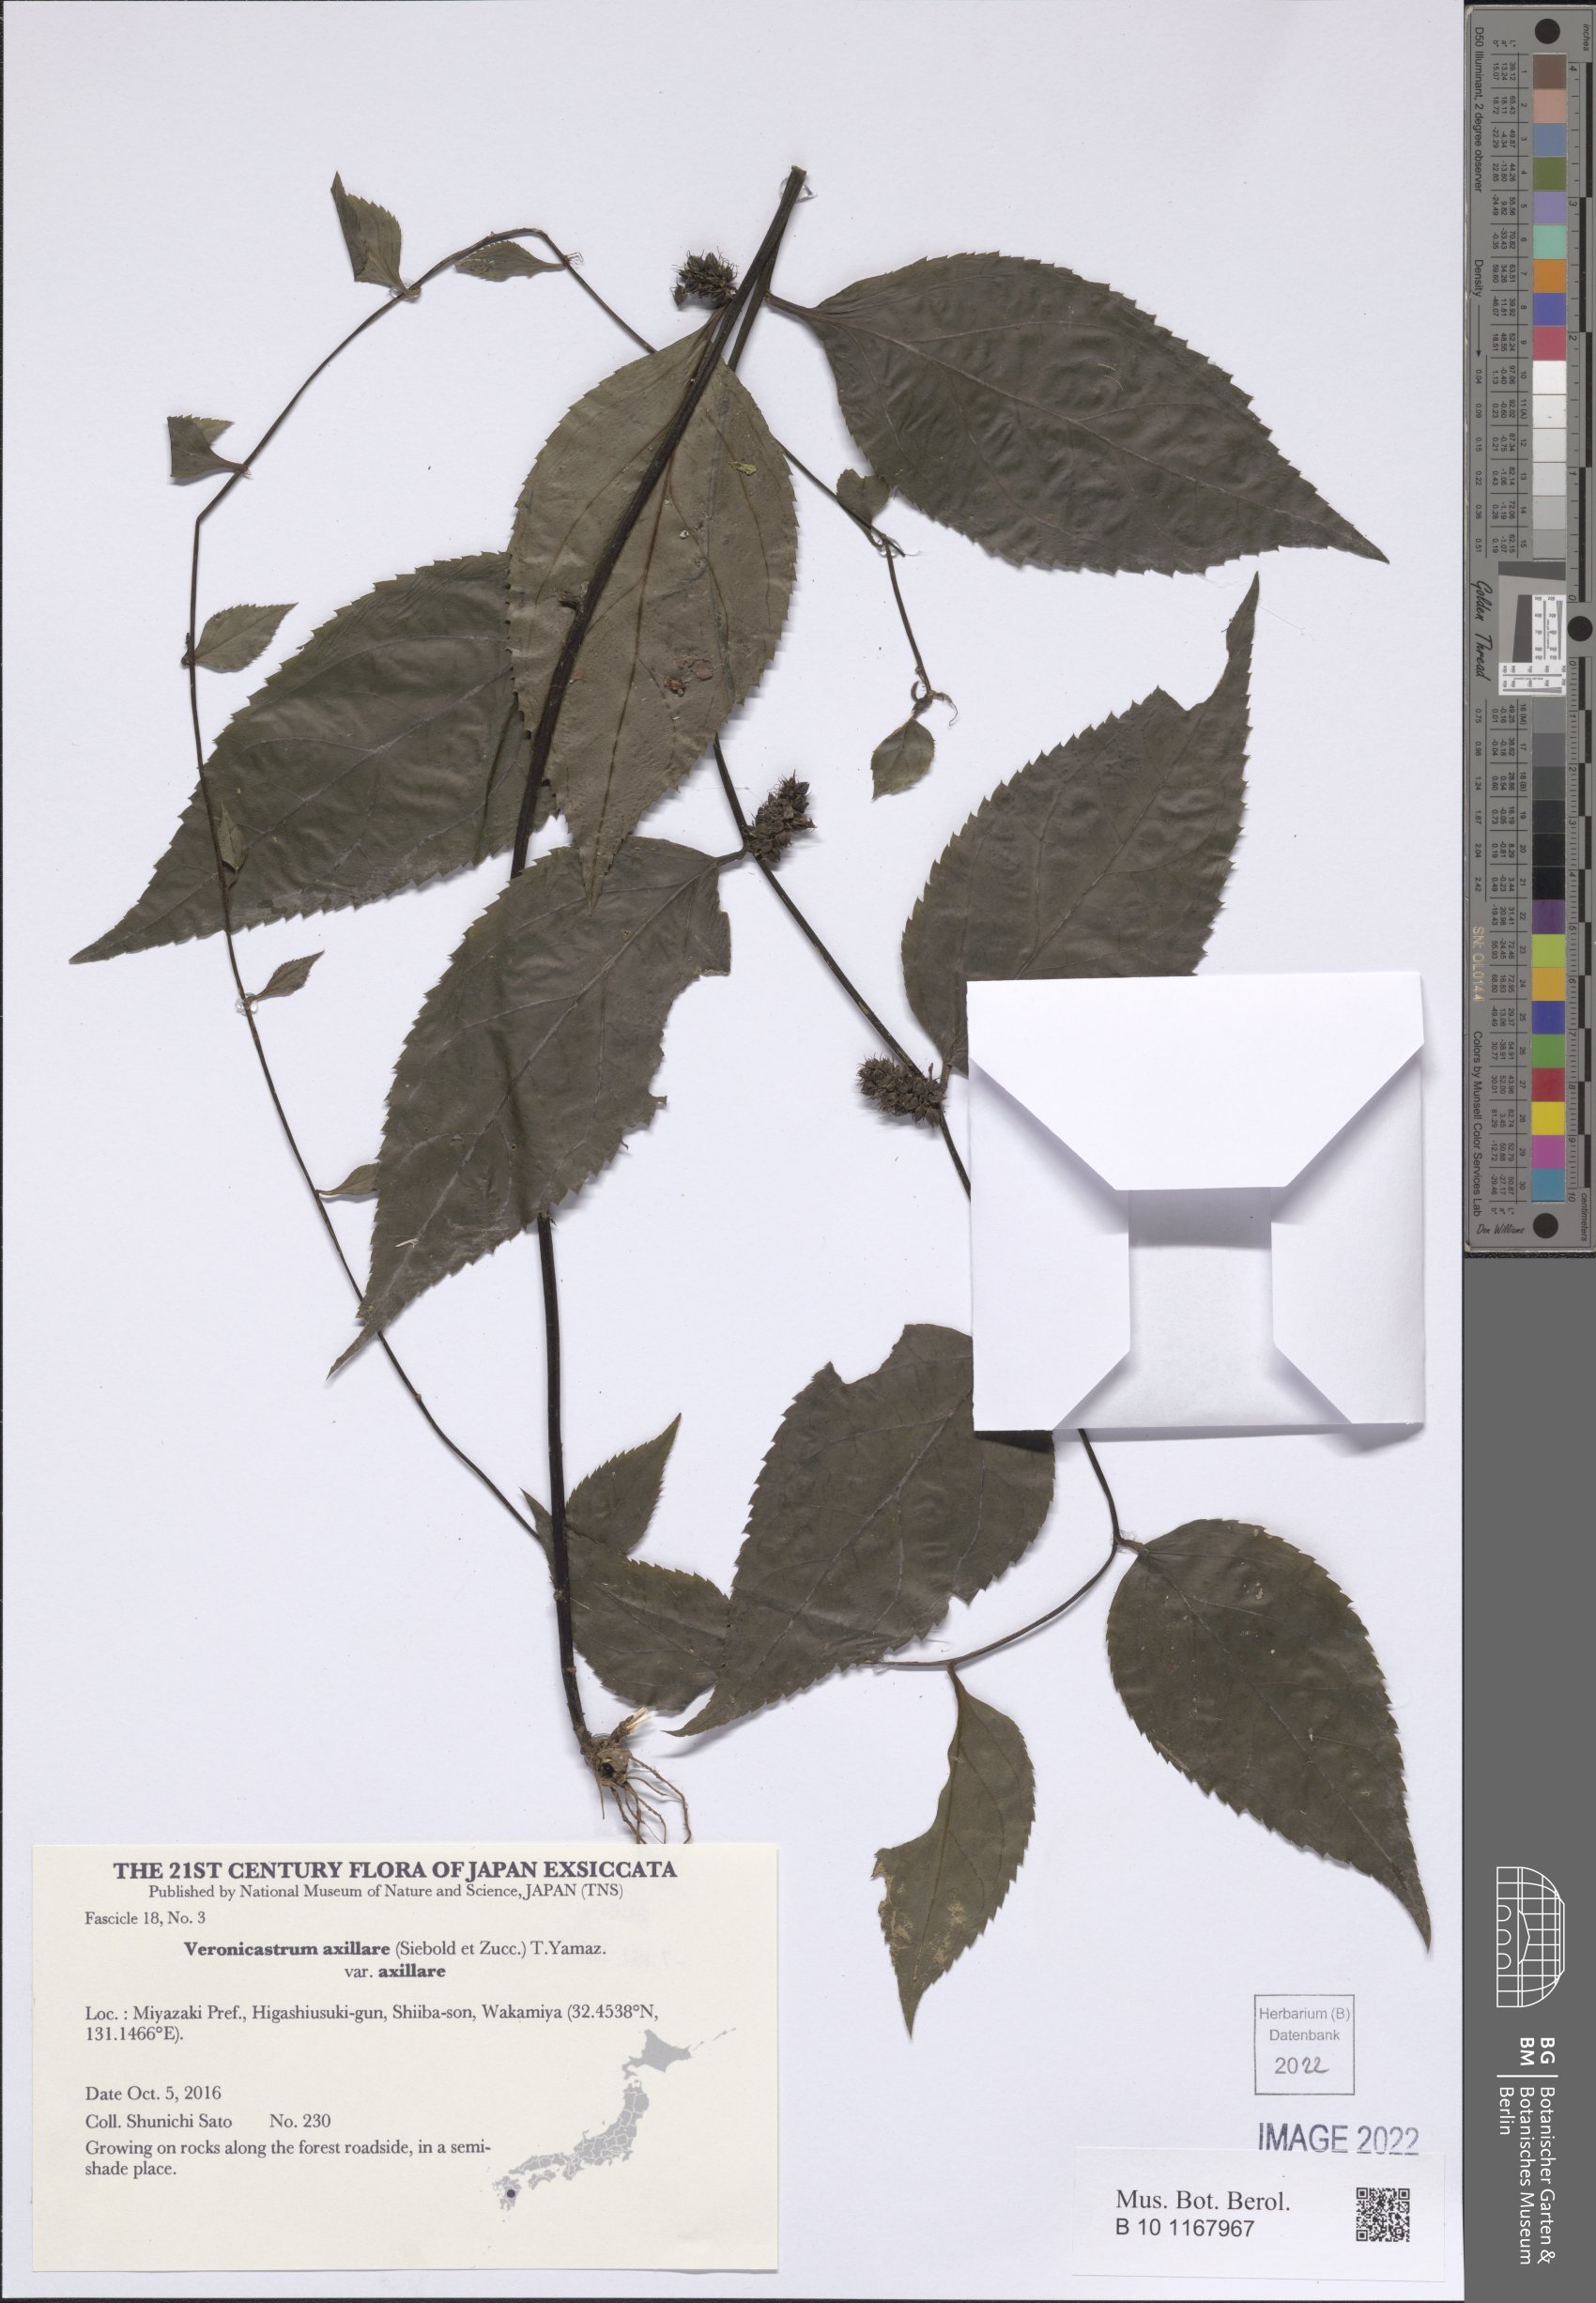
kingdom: Plantae
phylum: Tracheophyta
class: Magnoliopsida
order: Lamiales
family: Plantaginaceae
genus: Veronicastrum
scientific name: Veronicastrum axillare
